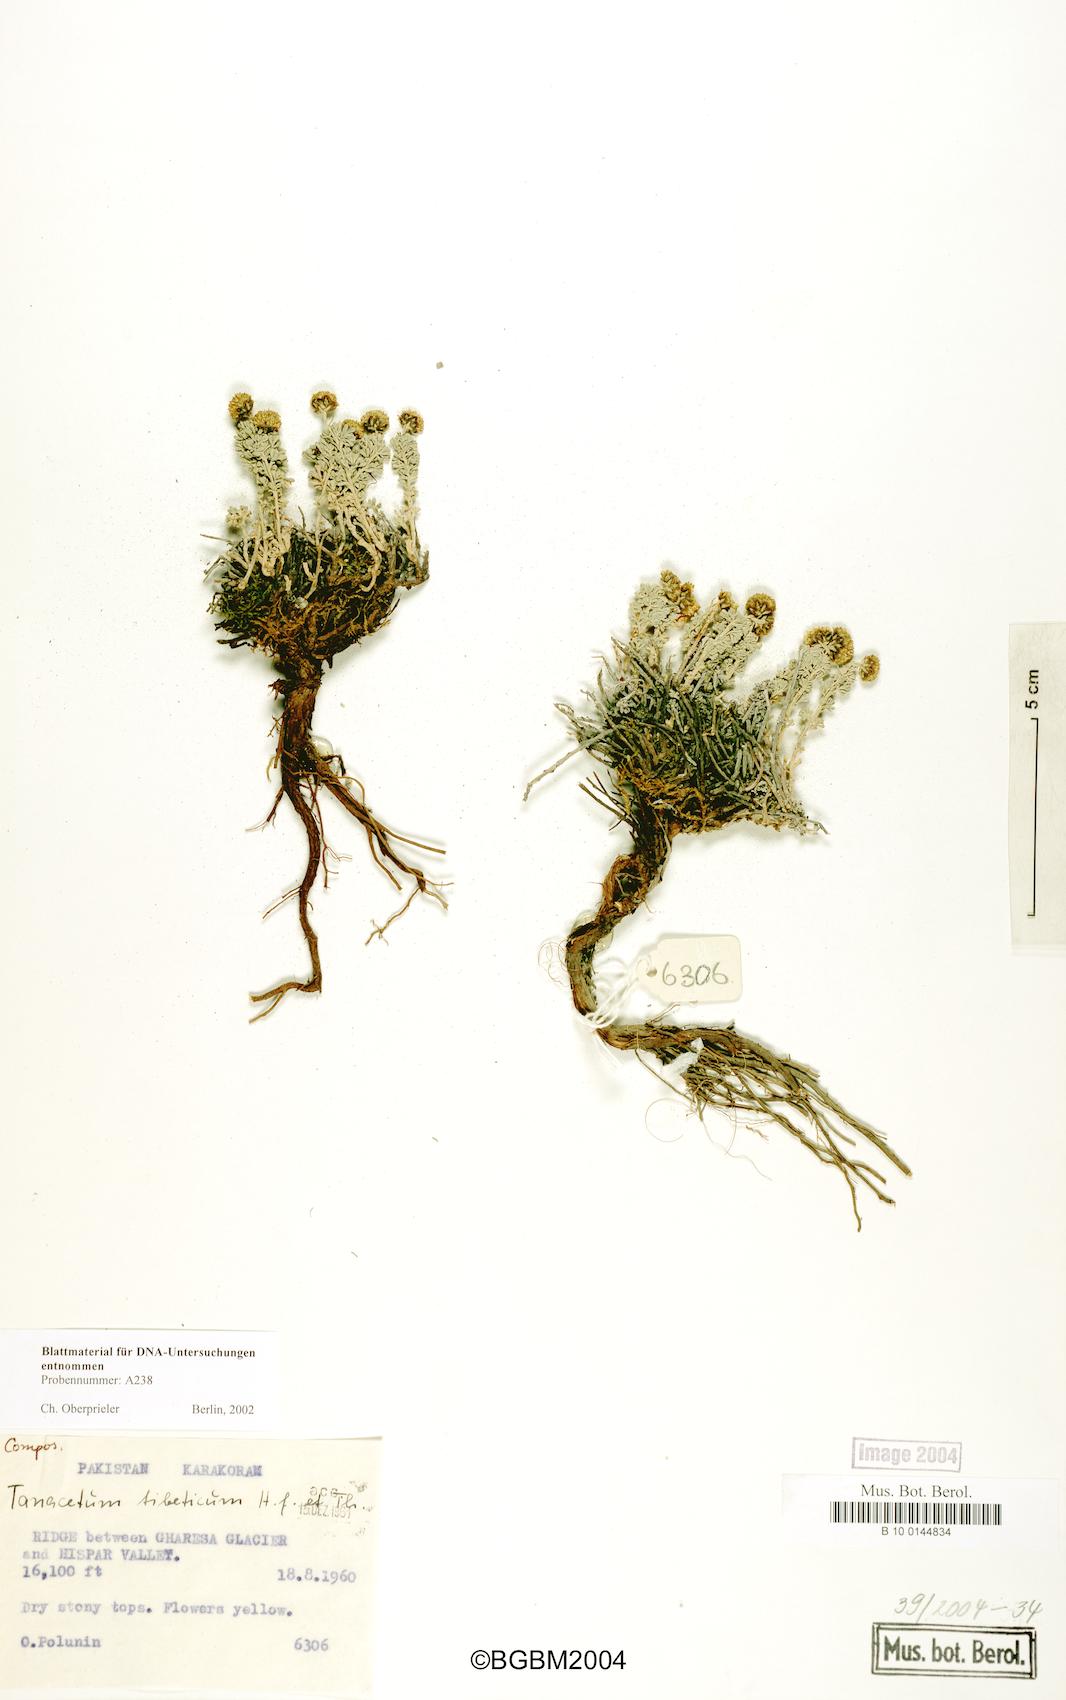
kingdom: Plantae
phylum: Tracheophyta
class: Magnoliopsida
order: Asterales
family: Asteraceae
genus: Ajania
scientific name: Ajania tibetica
